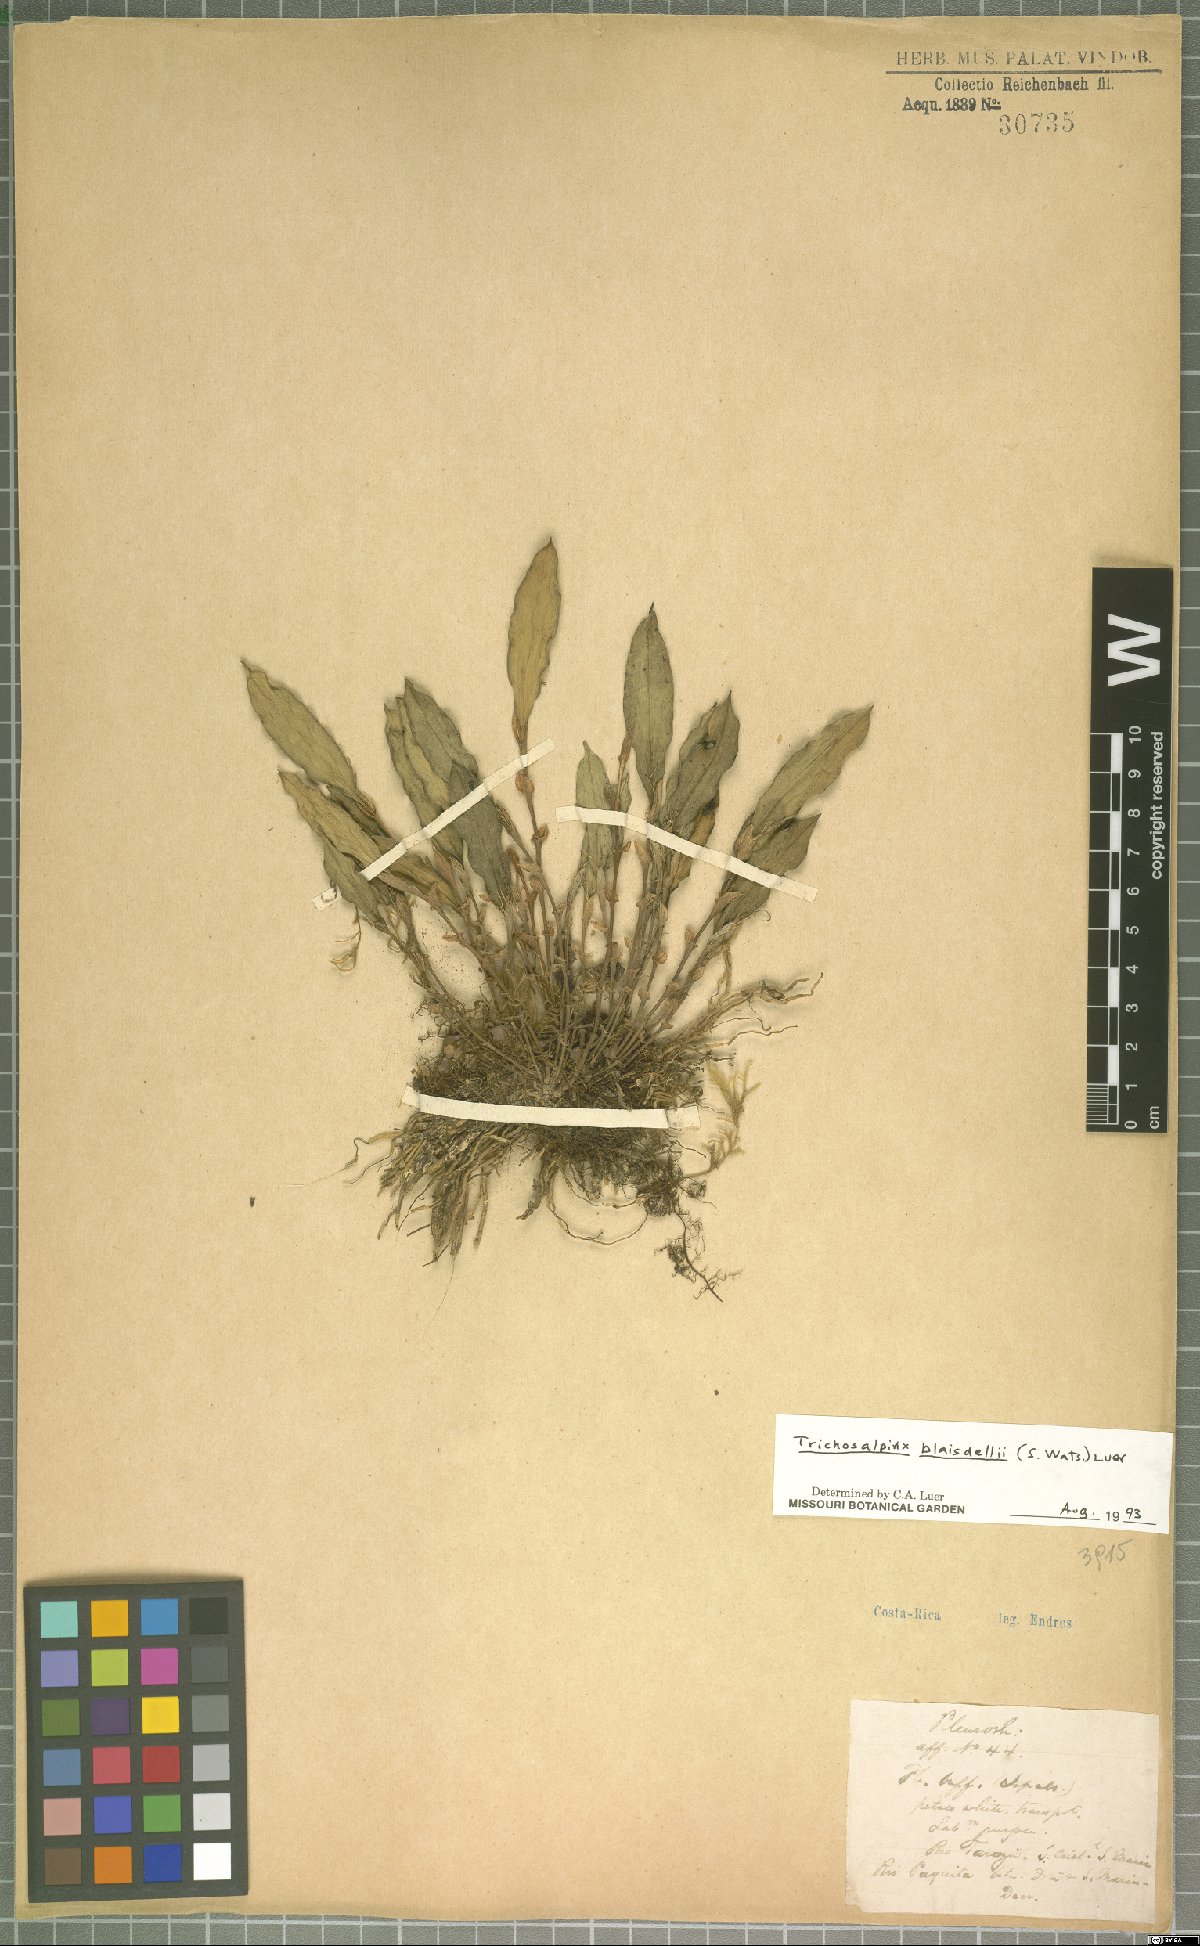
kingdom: Plantae
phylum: Tracheophyta
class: Liliopsida
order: Asparagales
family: Orchidaceae
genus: Trichosalpinx
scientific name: Trichosalpinx blaisdellii
